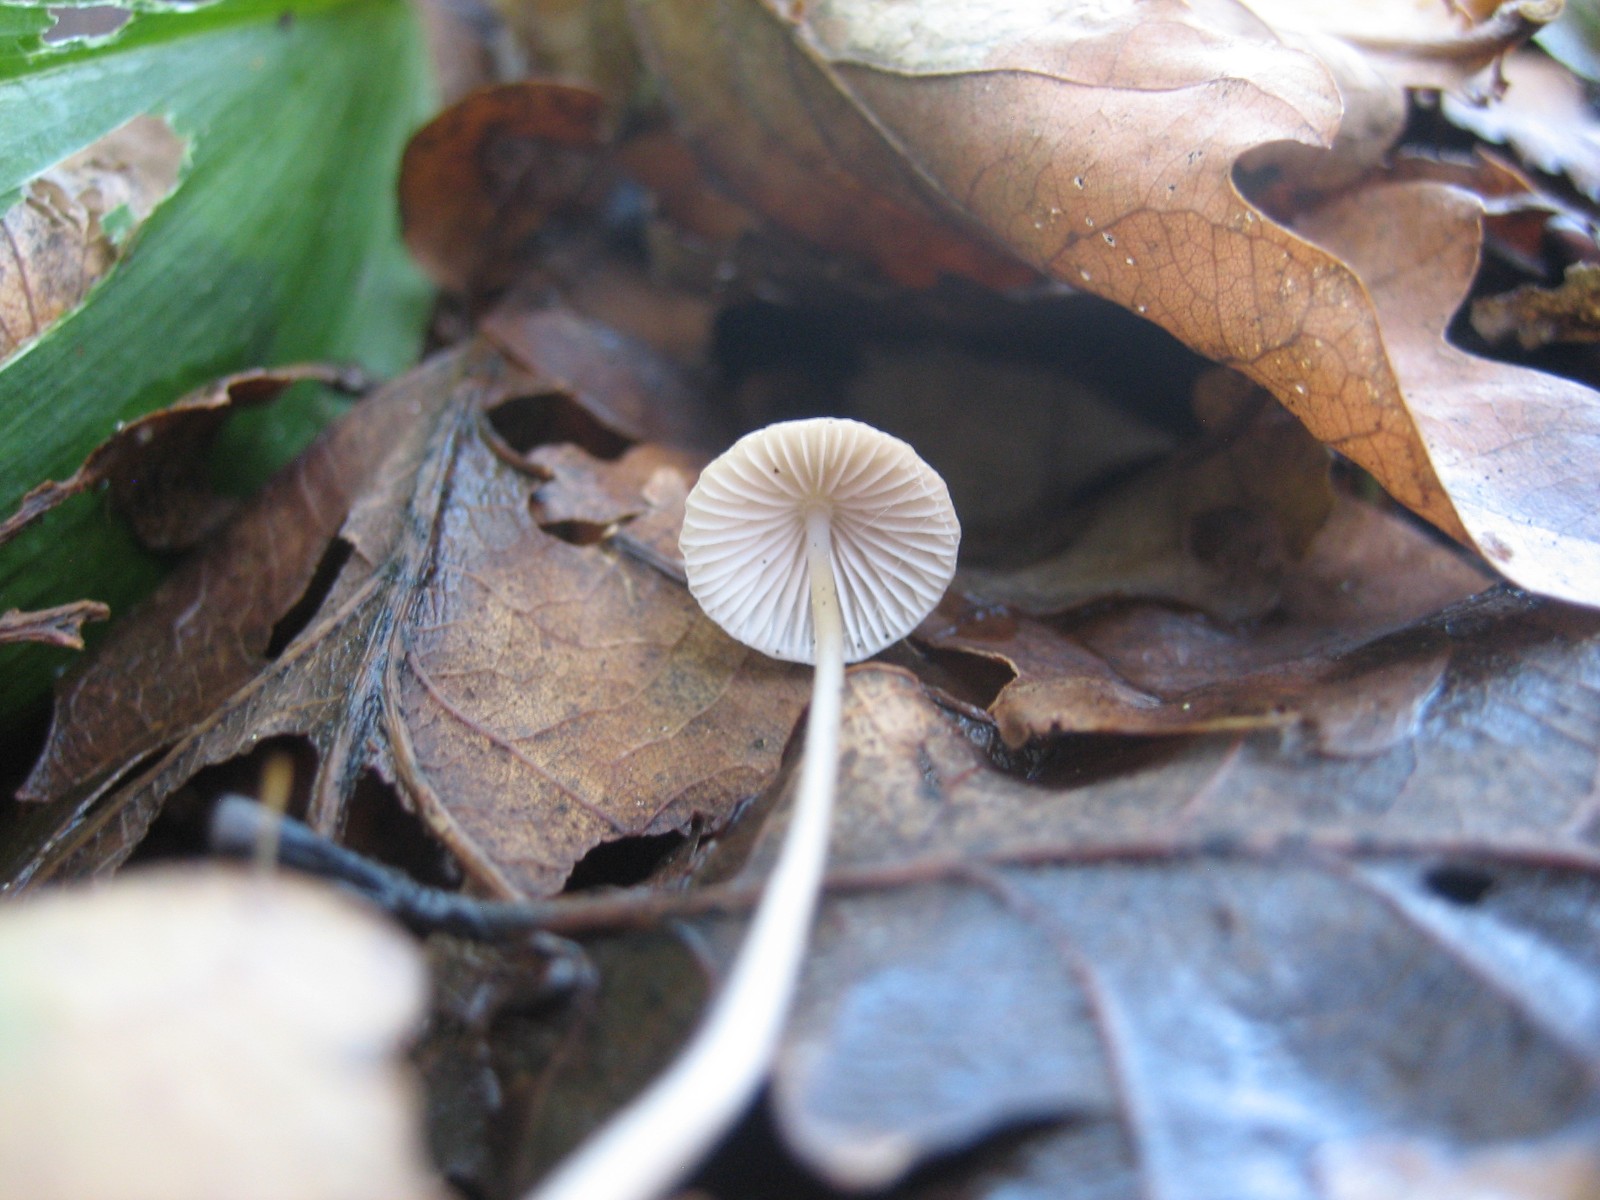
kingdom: Fungi
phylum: Basidiomycota
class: Agaricomycetes
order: Agaricales
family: Mycenaceae
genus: Mycena
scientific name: Mycena
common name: huesvamp
